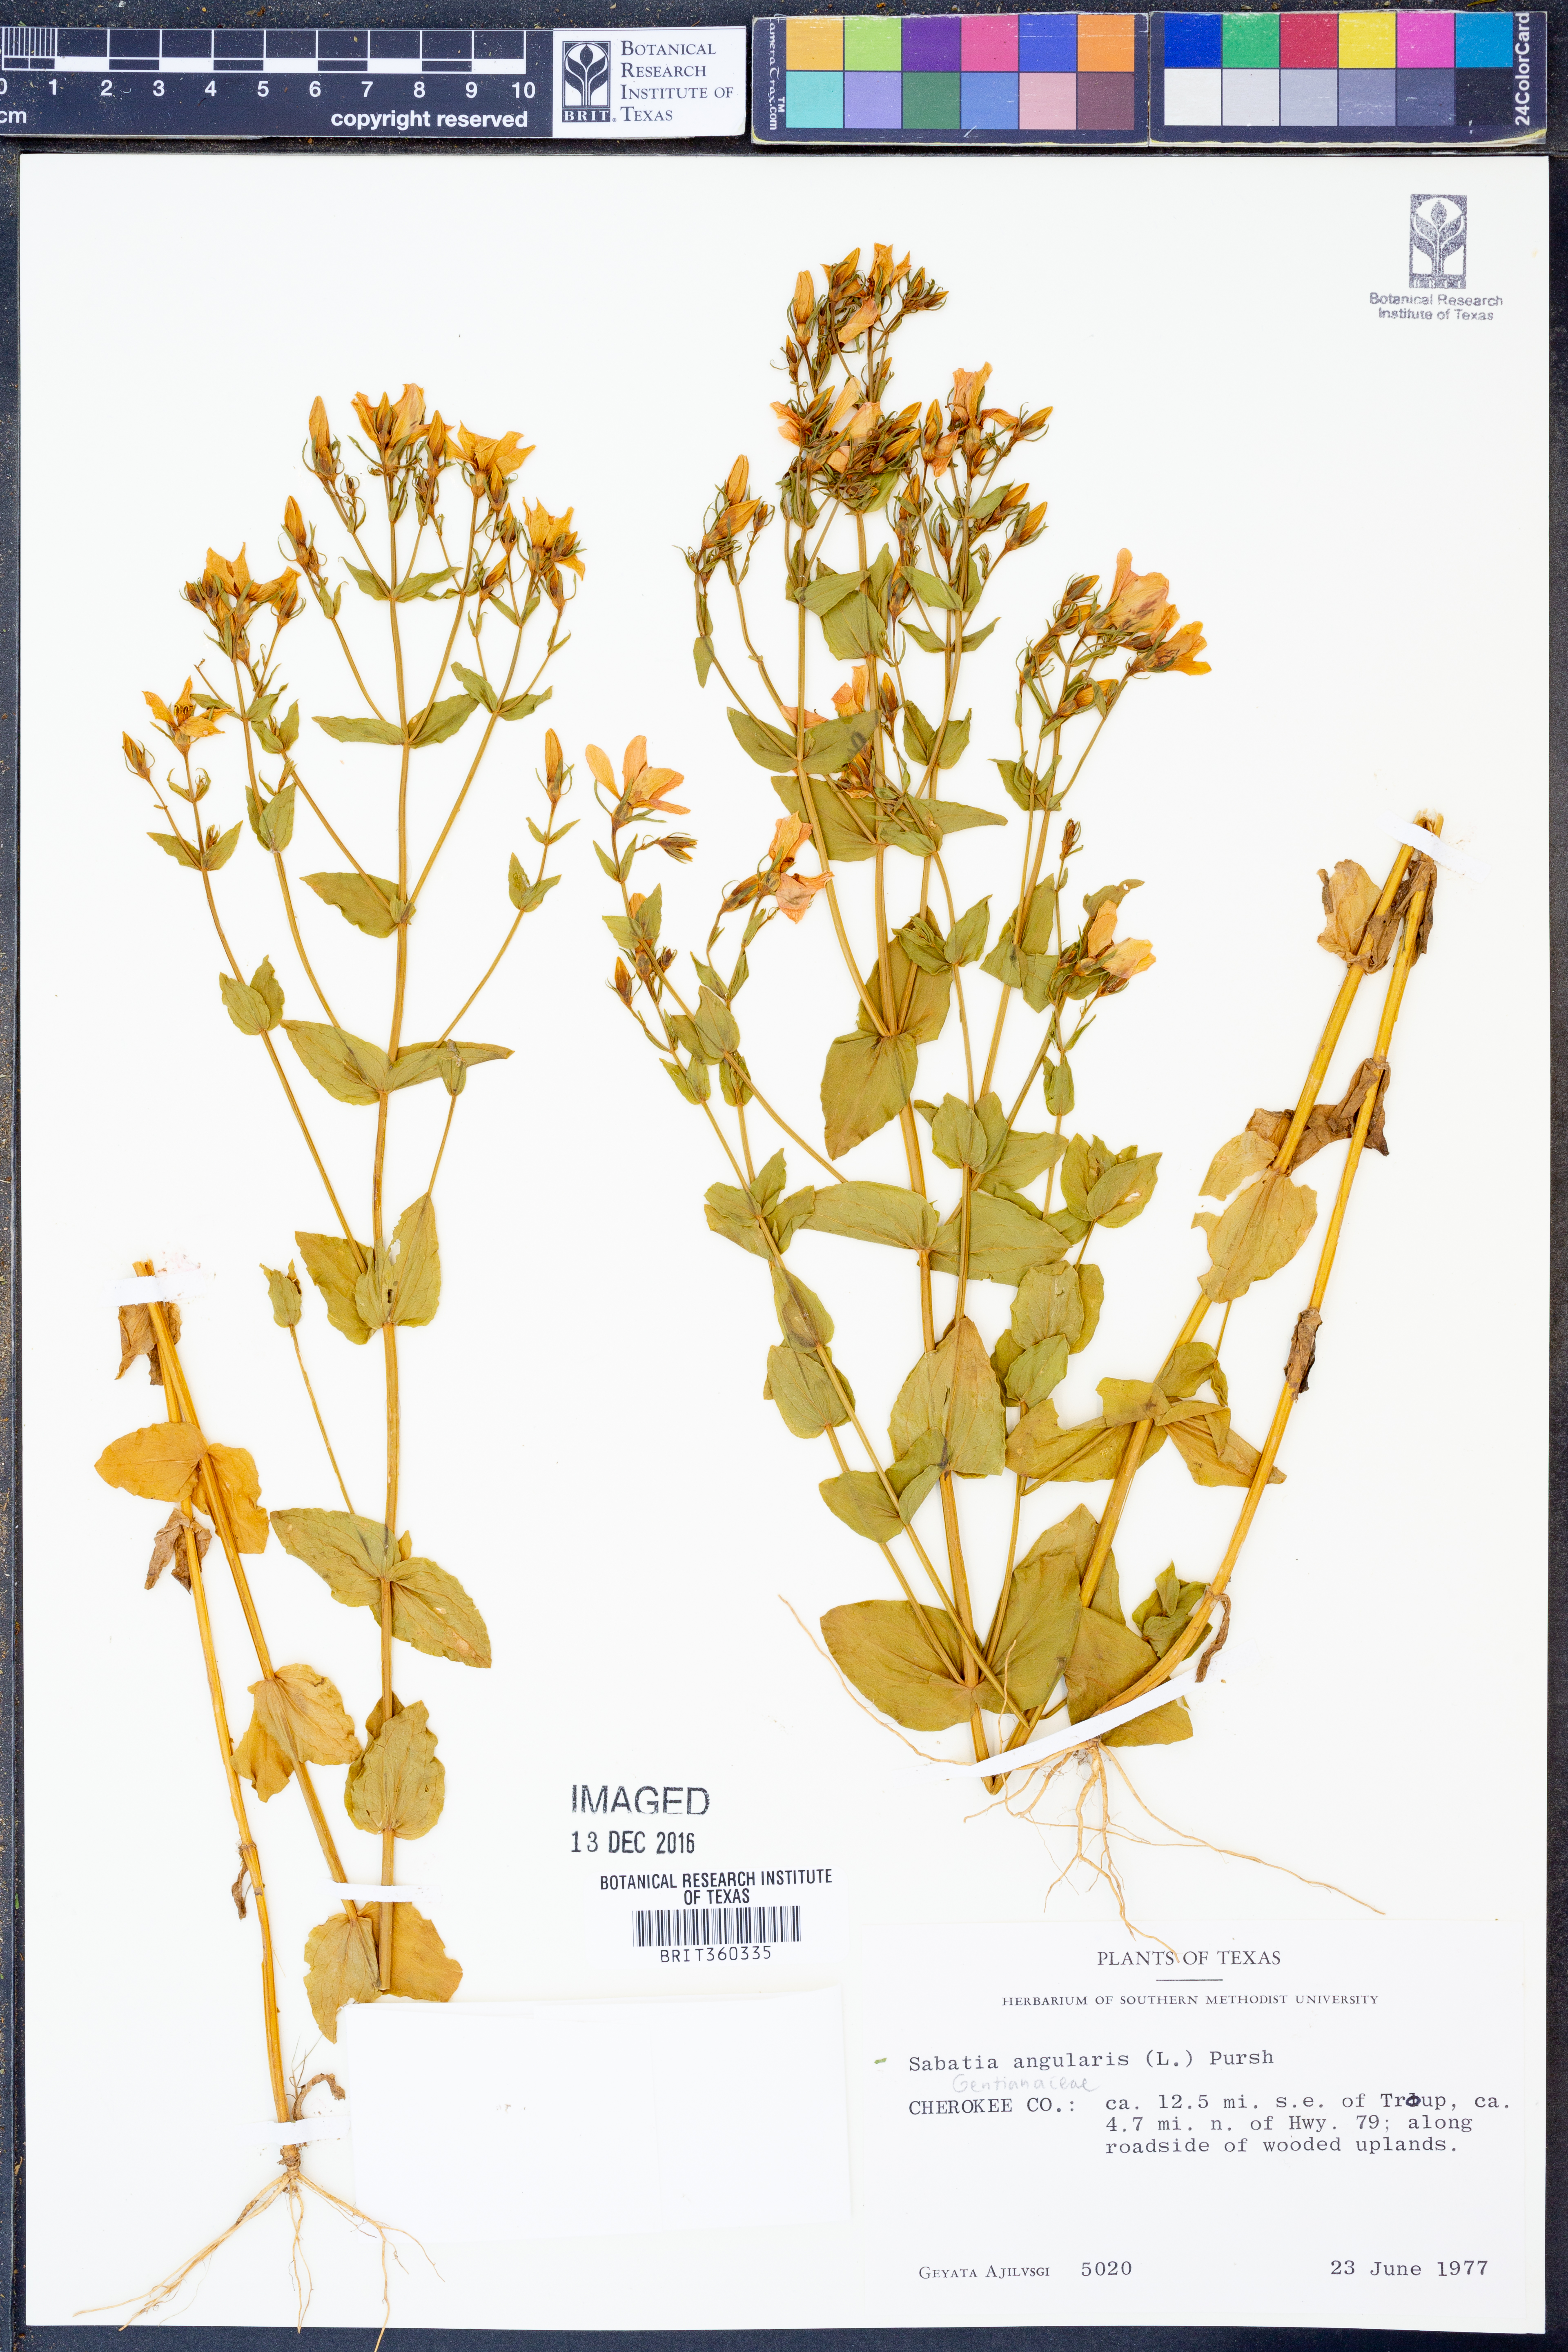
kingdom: Plantae
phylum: Tracheophyta
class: Magnoliopsida
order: Gentianales
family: Gentianaceae
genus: Sabatia
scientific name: Sabatia angularis
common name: Rose-pink
